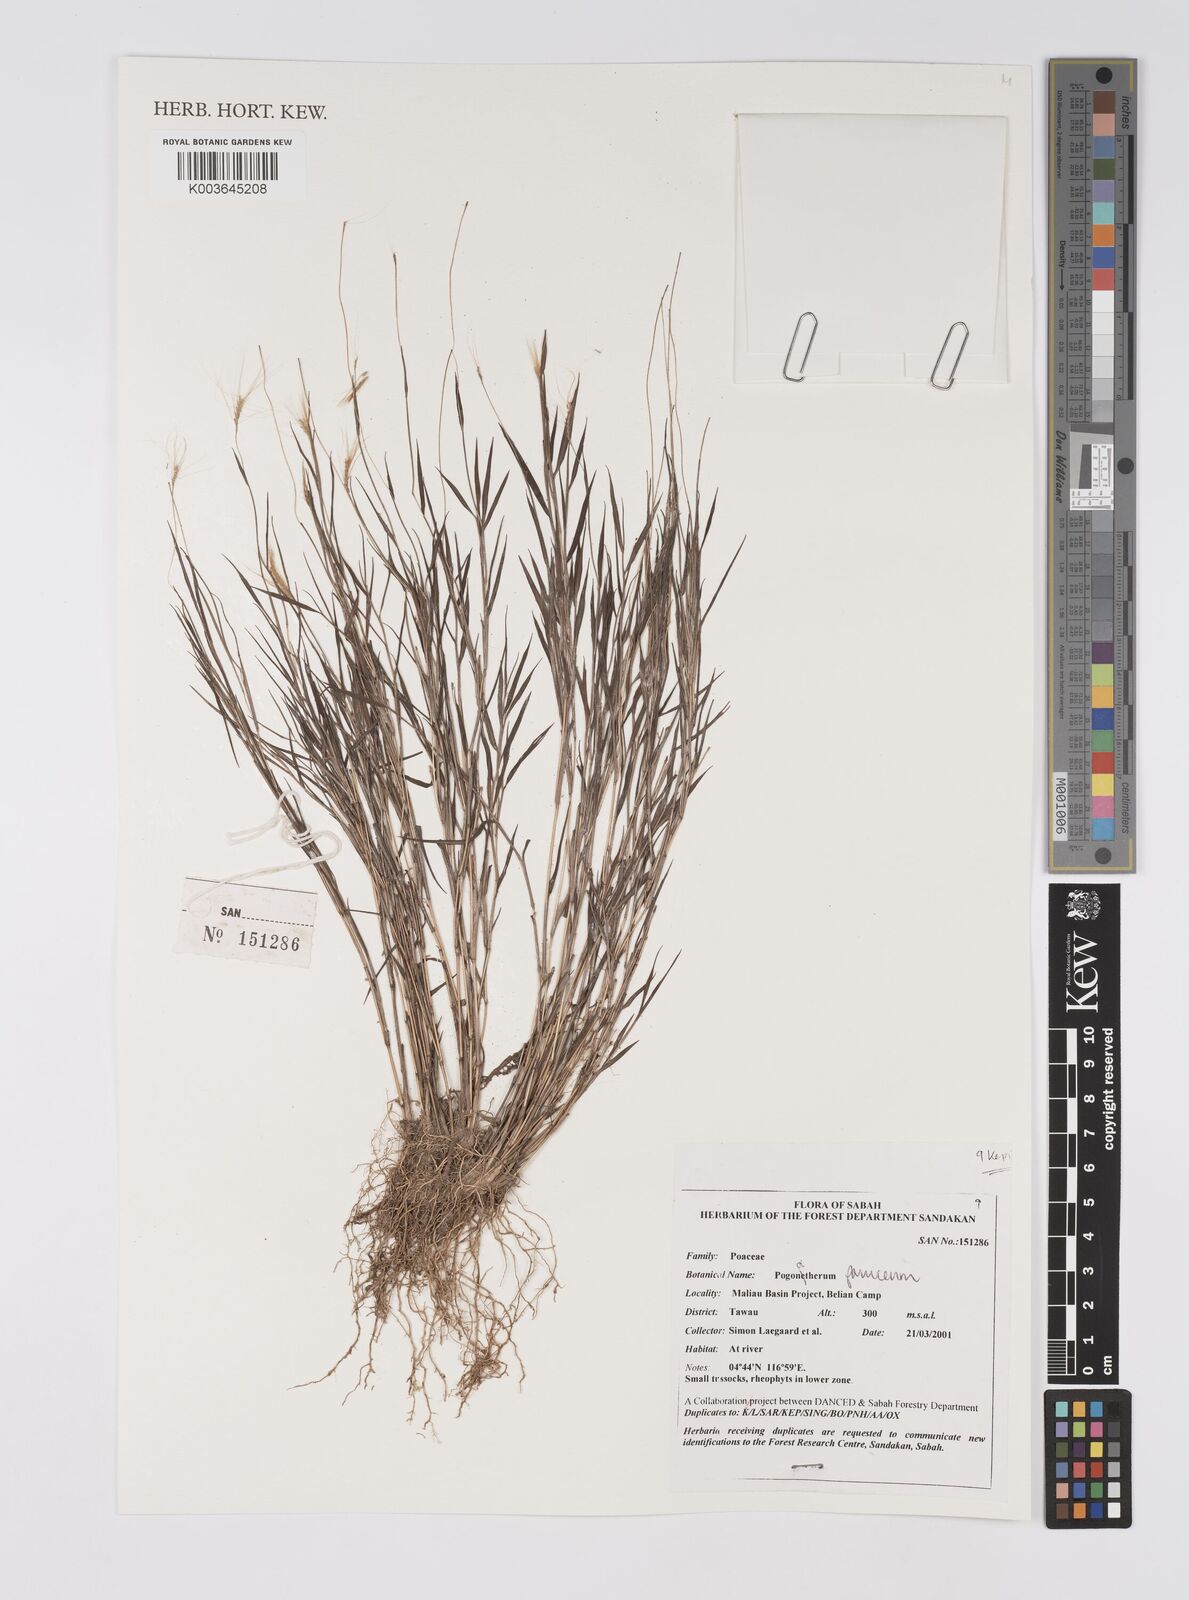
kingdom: Plantae
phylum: Tracheophyta
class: Liliopsida
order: Poales
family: Poaceae
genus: Pogonatherum
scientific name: Pogonatherum paniceum
